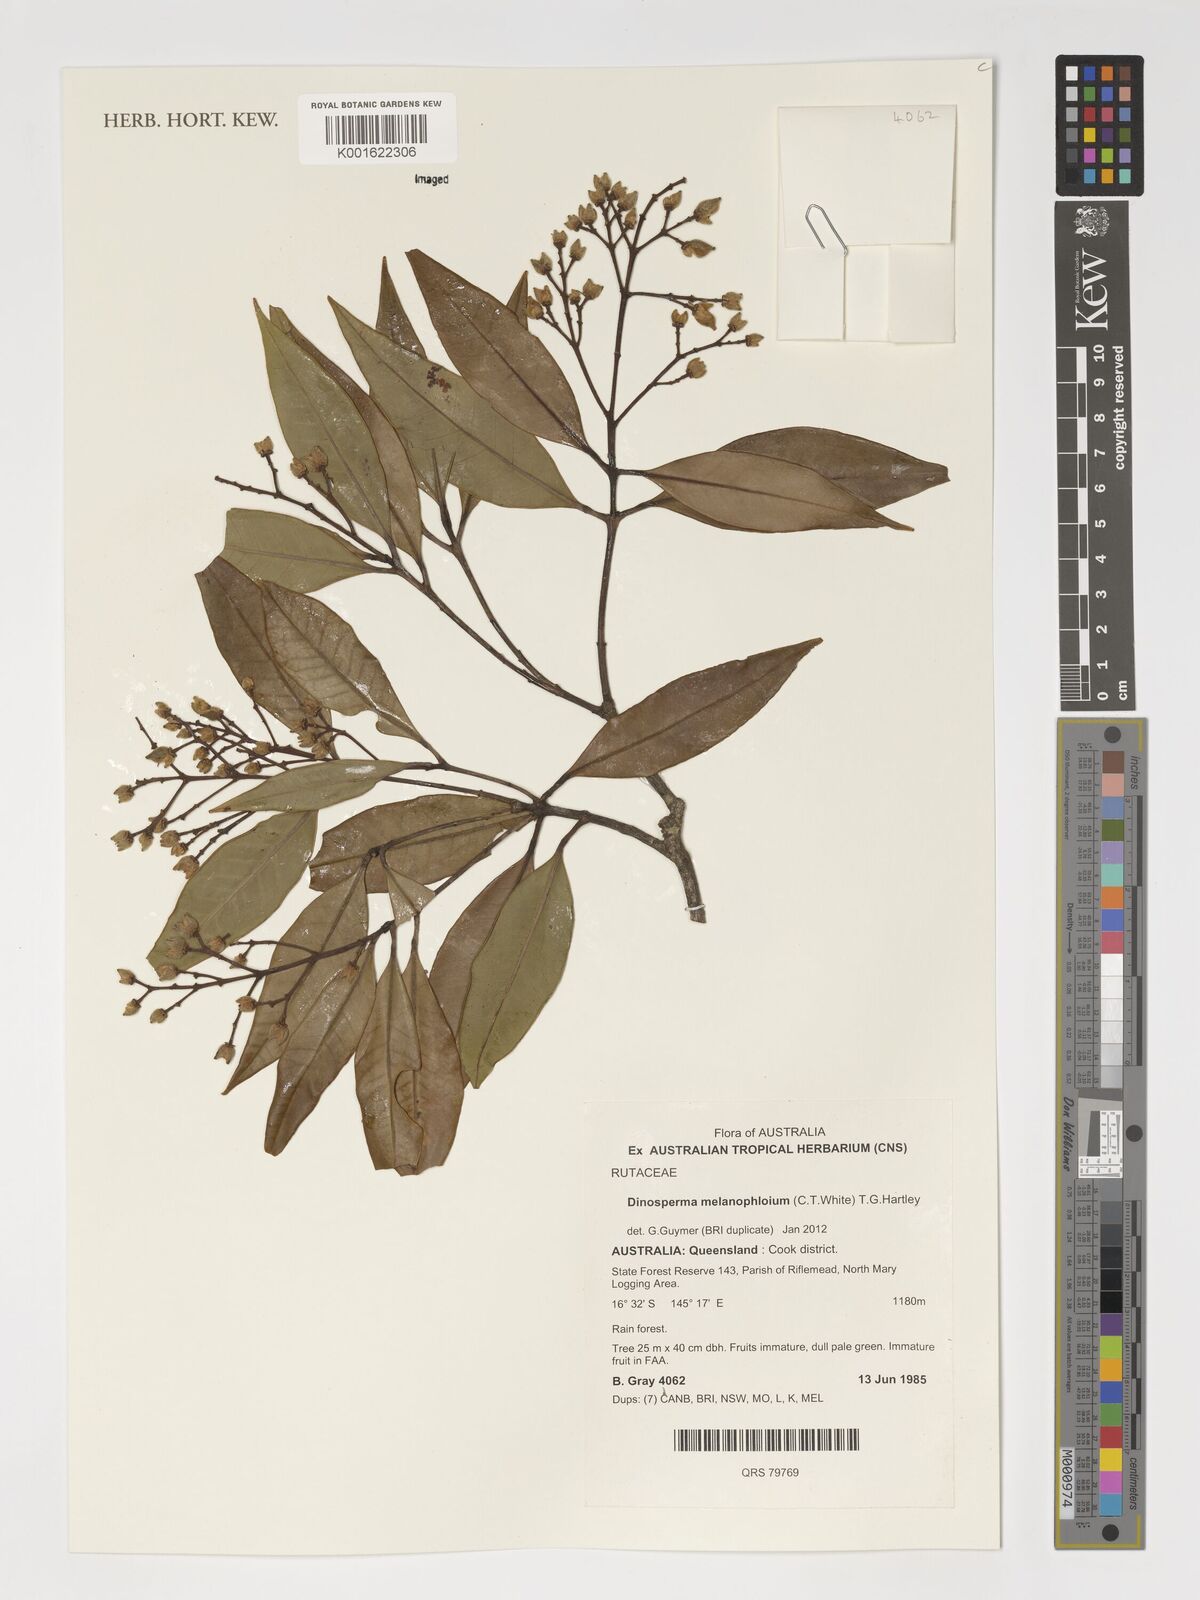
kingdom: Plantae
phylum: Tracheophyta
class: Magnoliopsida
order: Sapindales
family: Rutaceae
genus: Dinosperma
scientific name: Dinosperma
